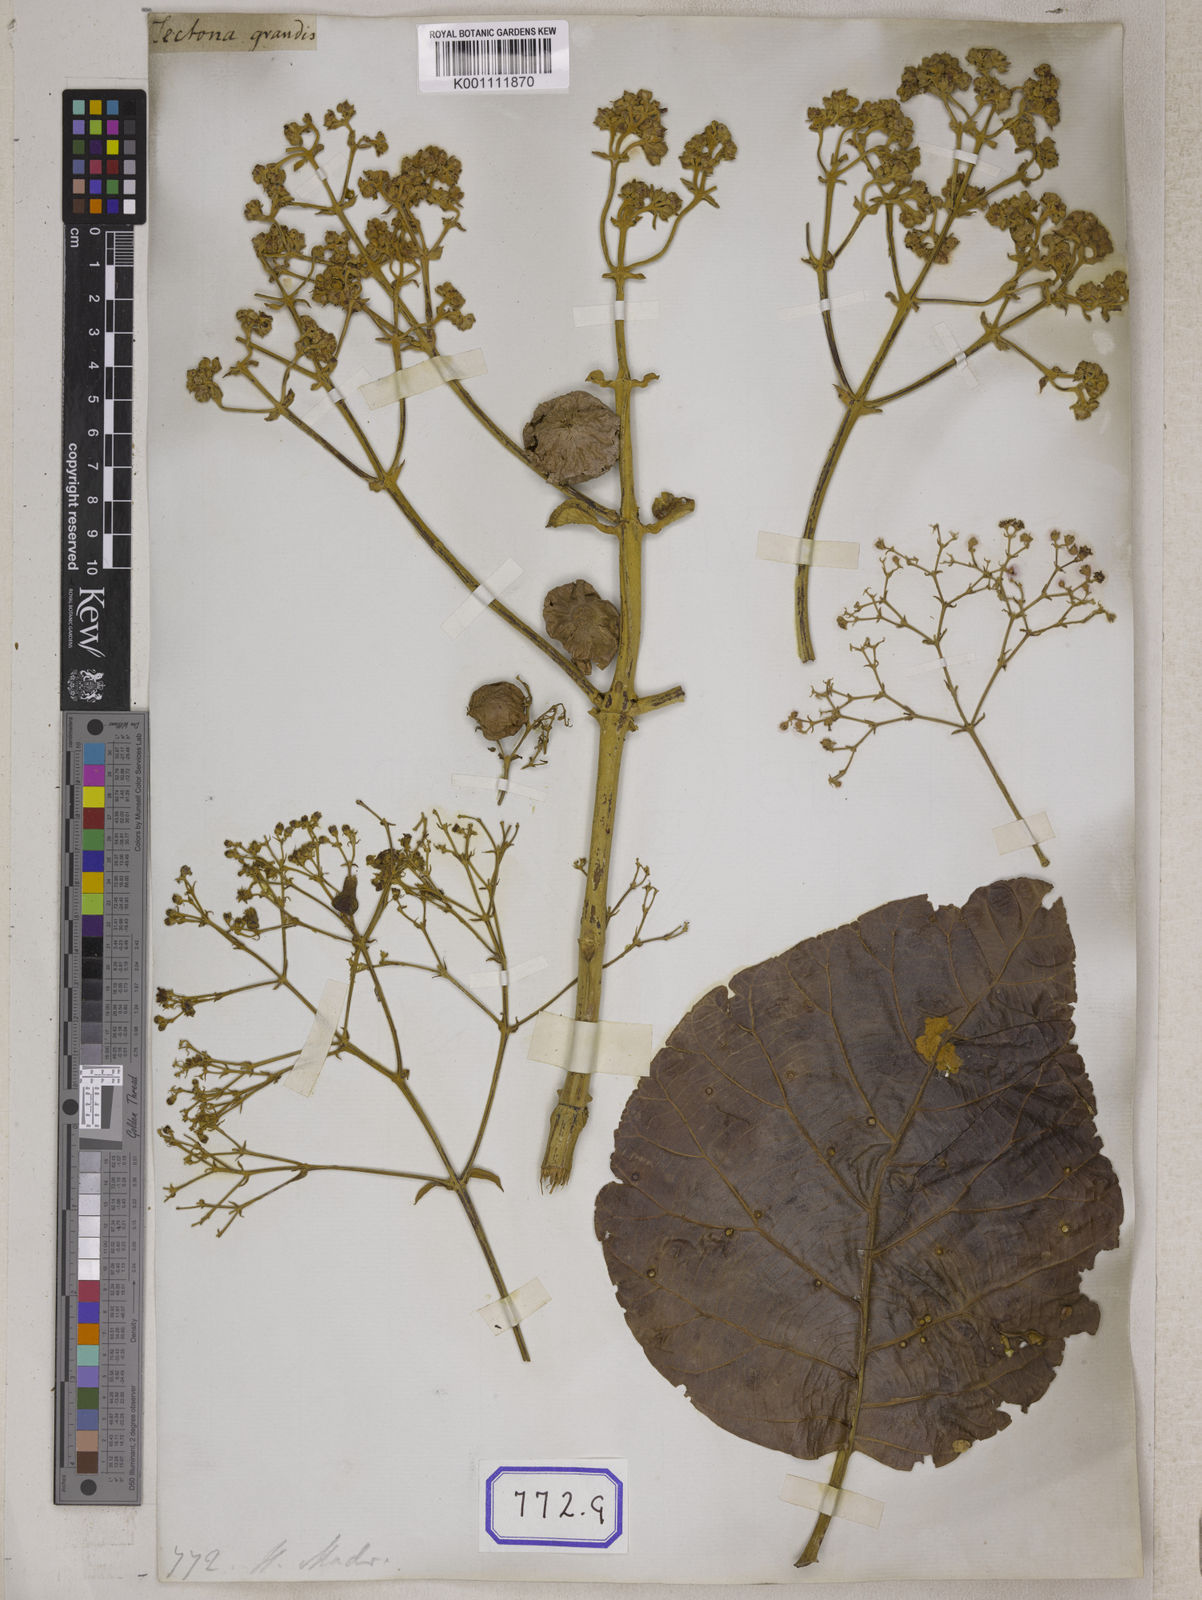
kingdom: Plantae
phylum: Tracheophyta
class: Magnoliopsida
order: Lamiales
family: Lamiaceae
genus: Tectona
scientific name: Tectona
